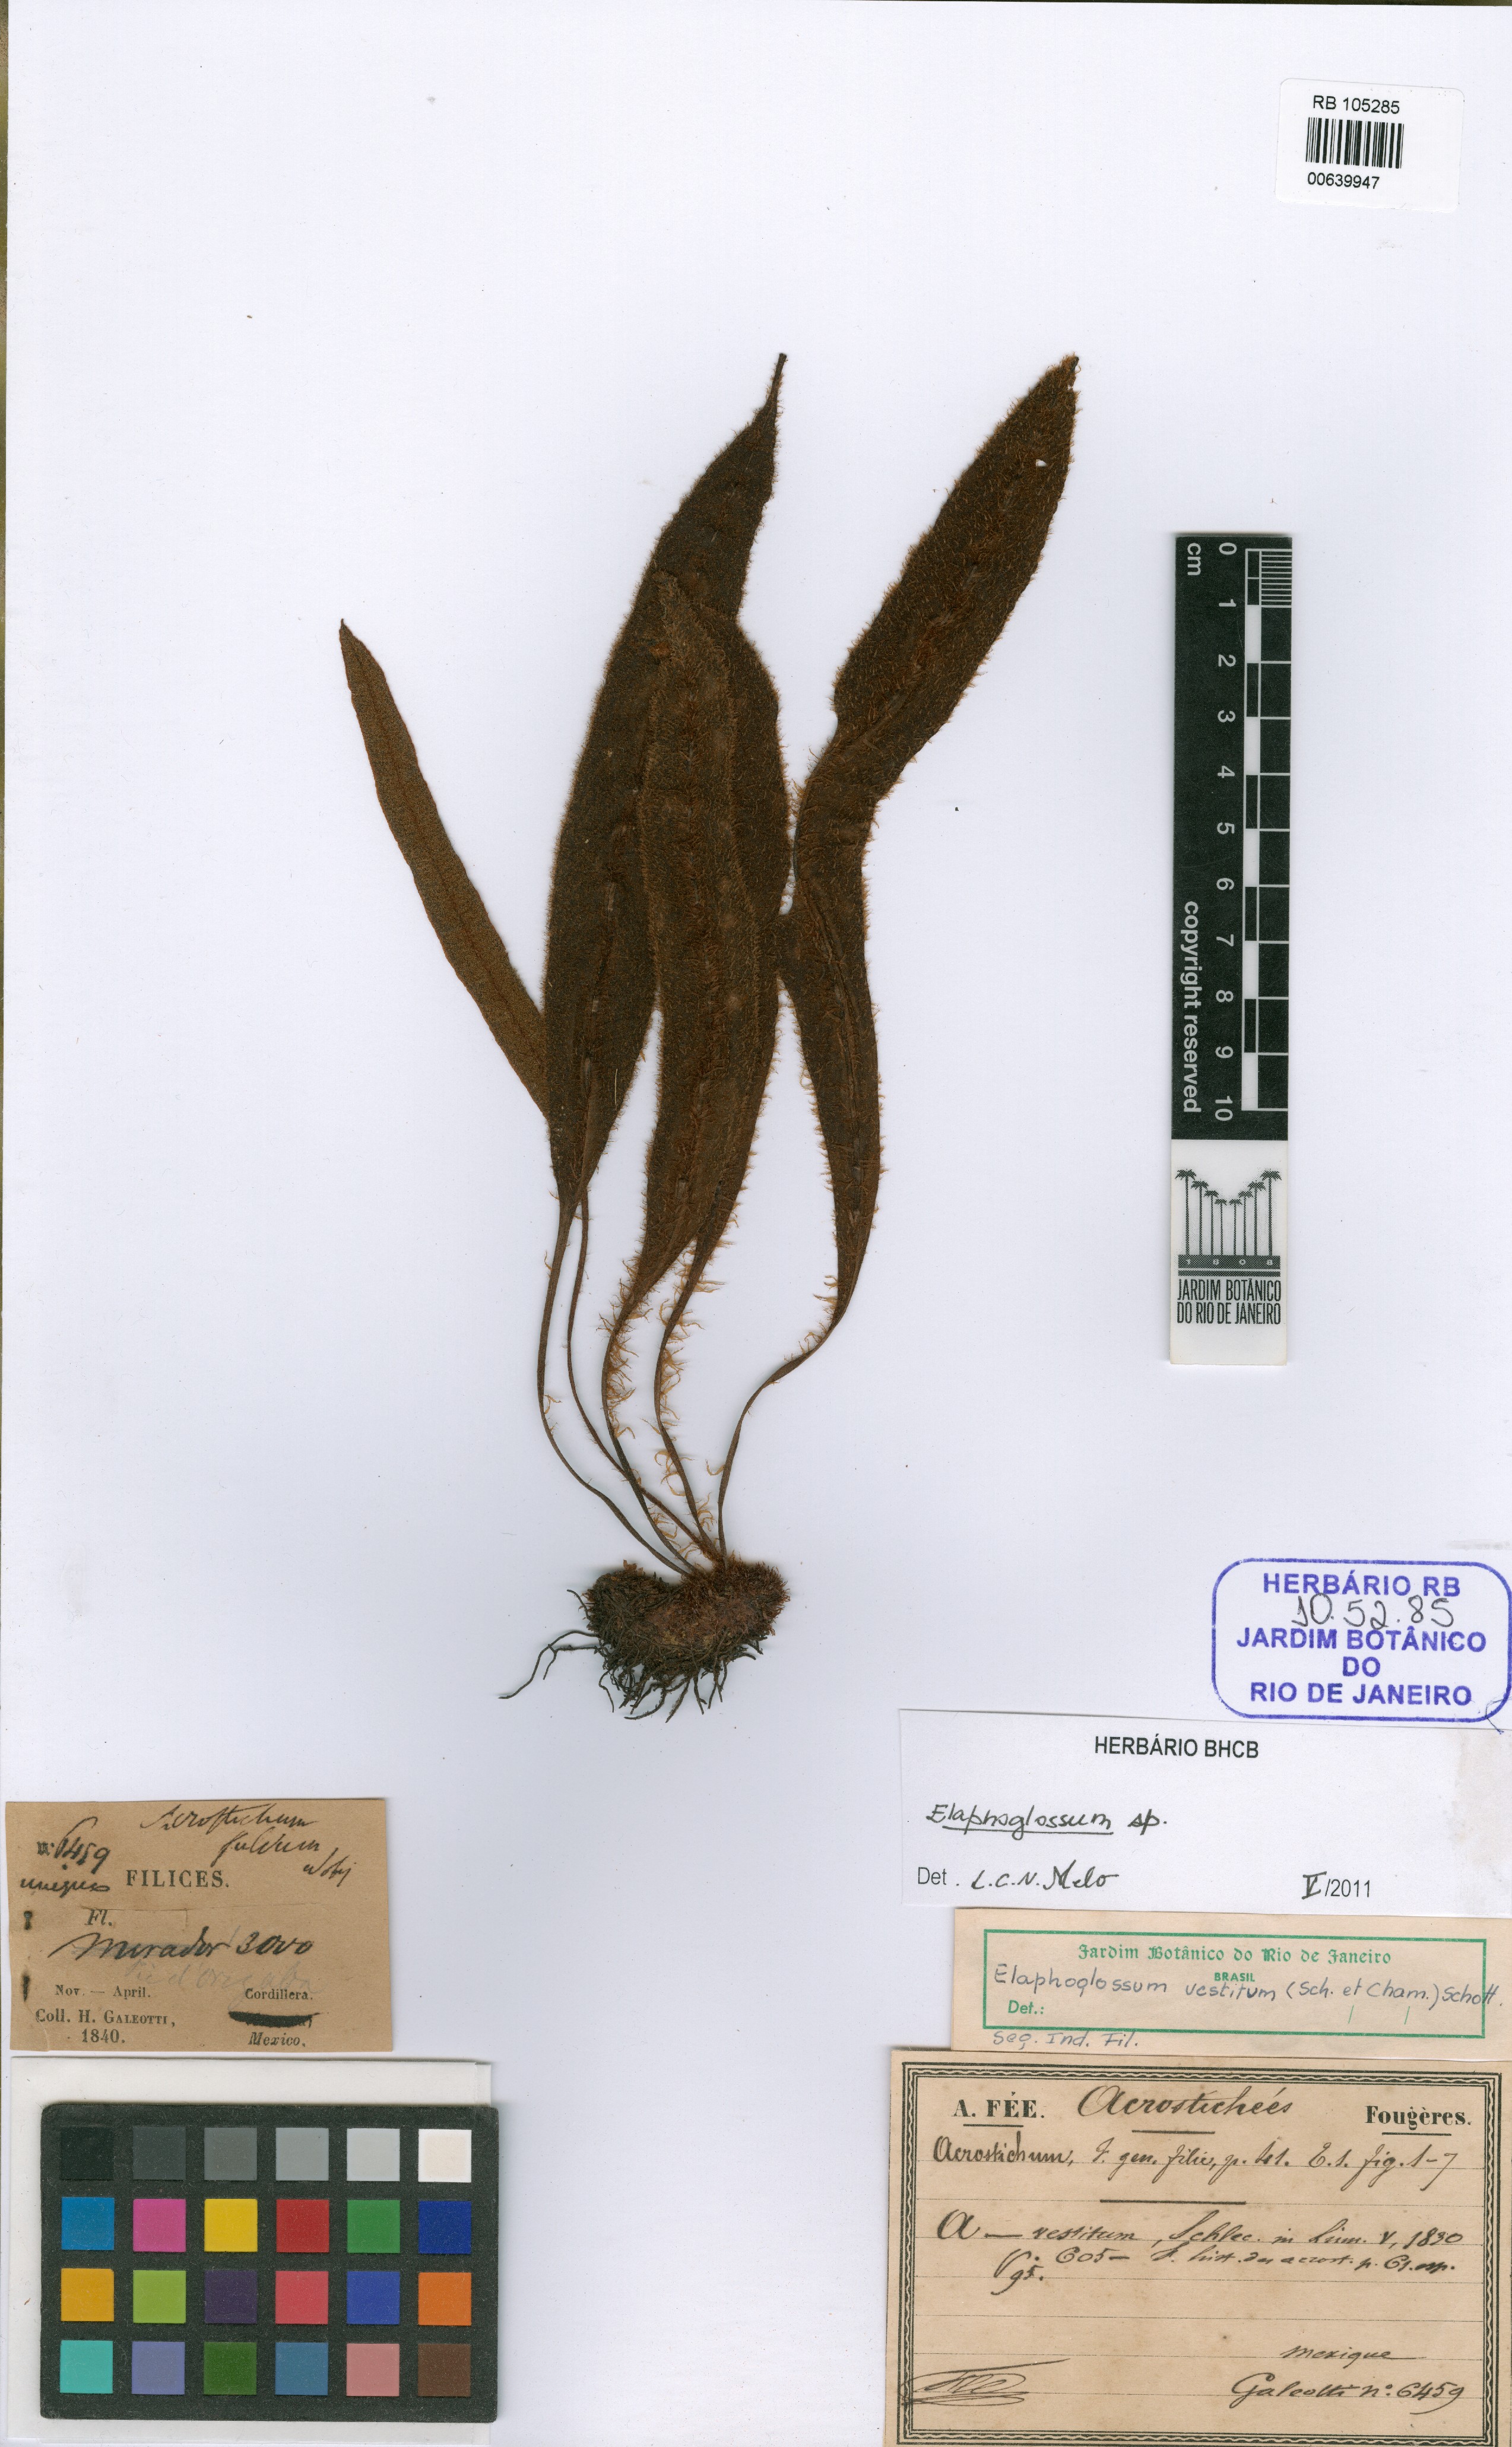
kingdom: Plantae
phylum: Tracheophyta
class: Polypodiopsida
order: Polypodiales
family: Dryopteridaceae
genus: Elaphoglossum
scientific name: Elaphoglossum
